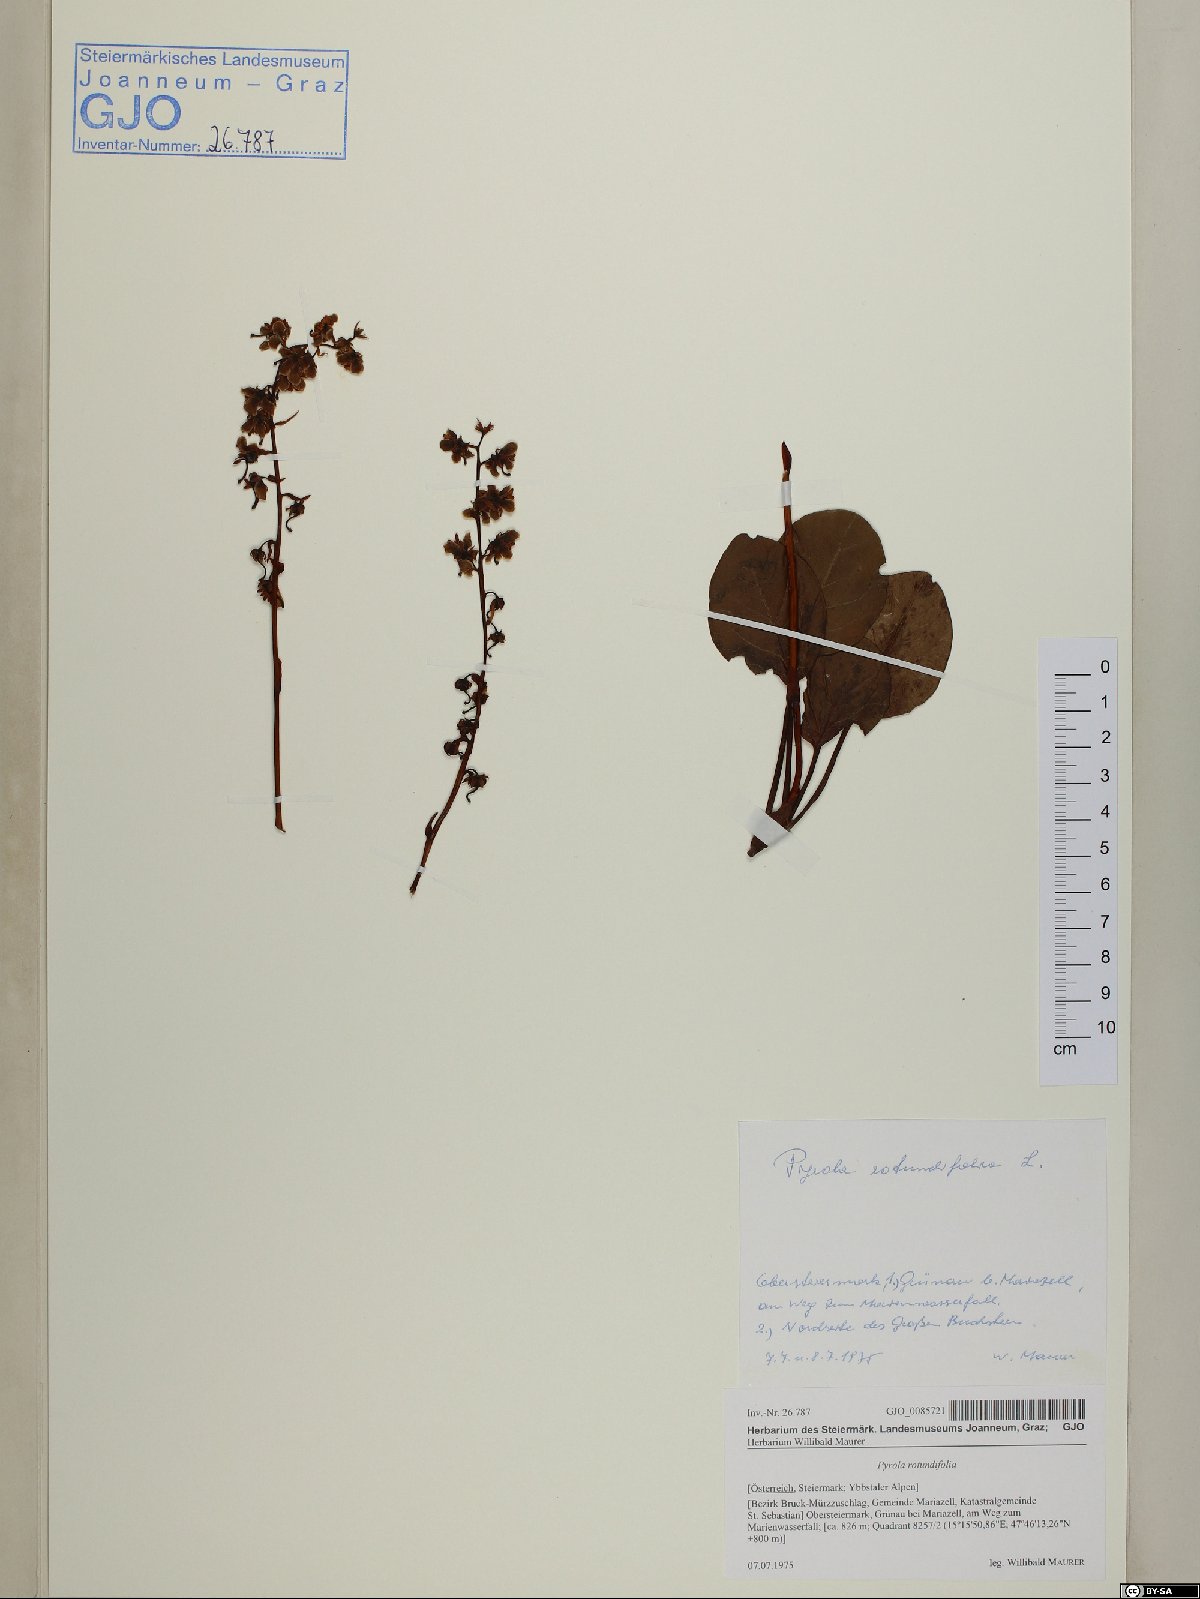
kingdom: Plantae
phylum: Tracheophyta
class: Magnoliopsida
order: Ericales
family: Ericaceae
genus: Pyrola
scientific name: Pyrola rotundifolia
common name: Round-leaved wintergreen
